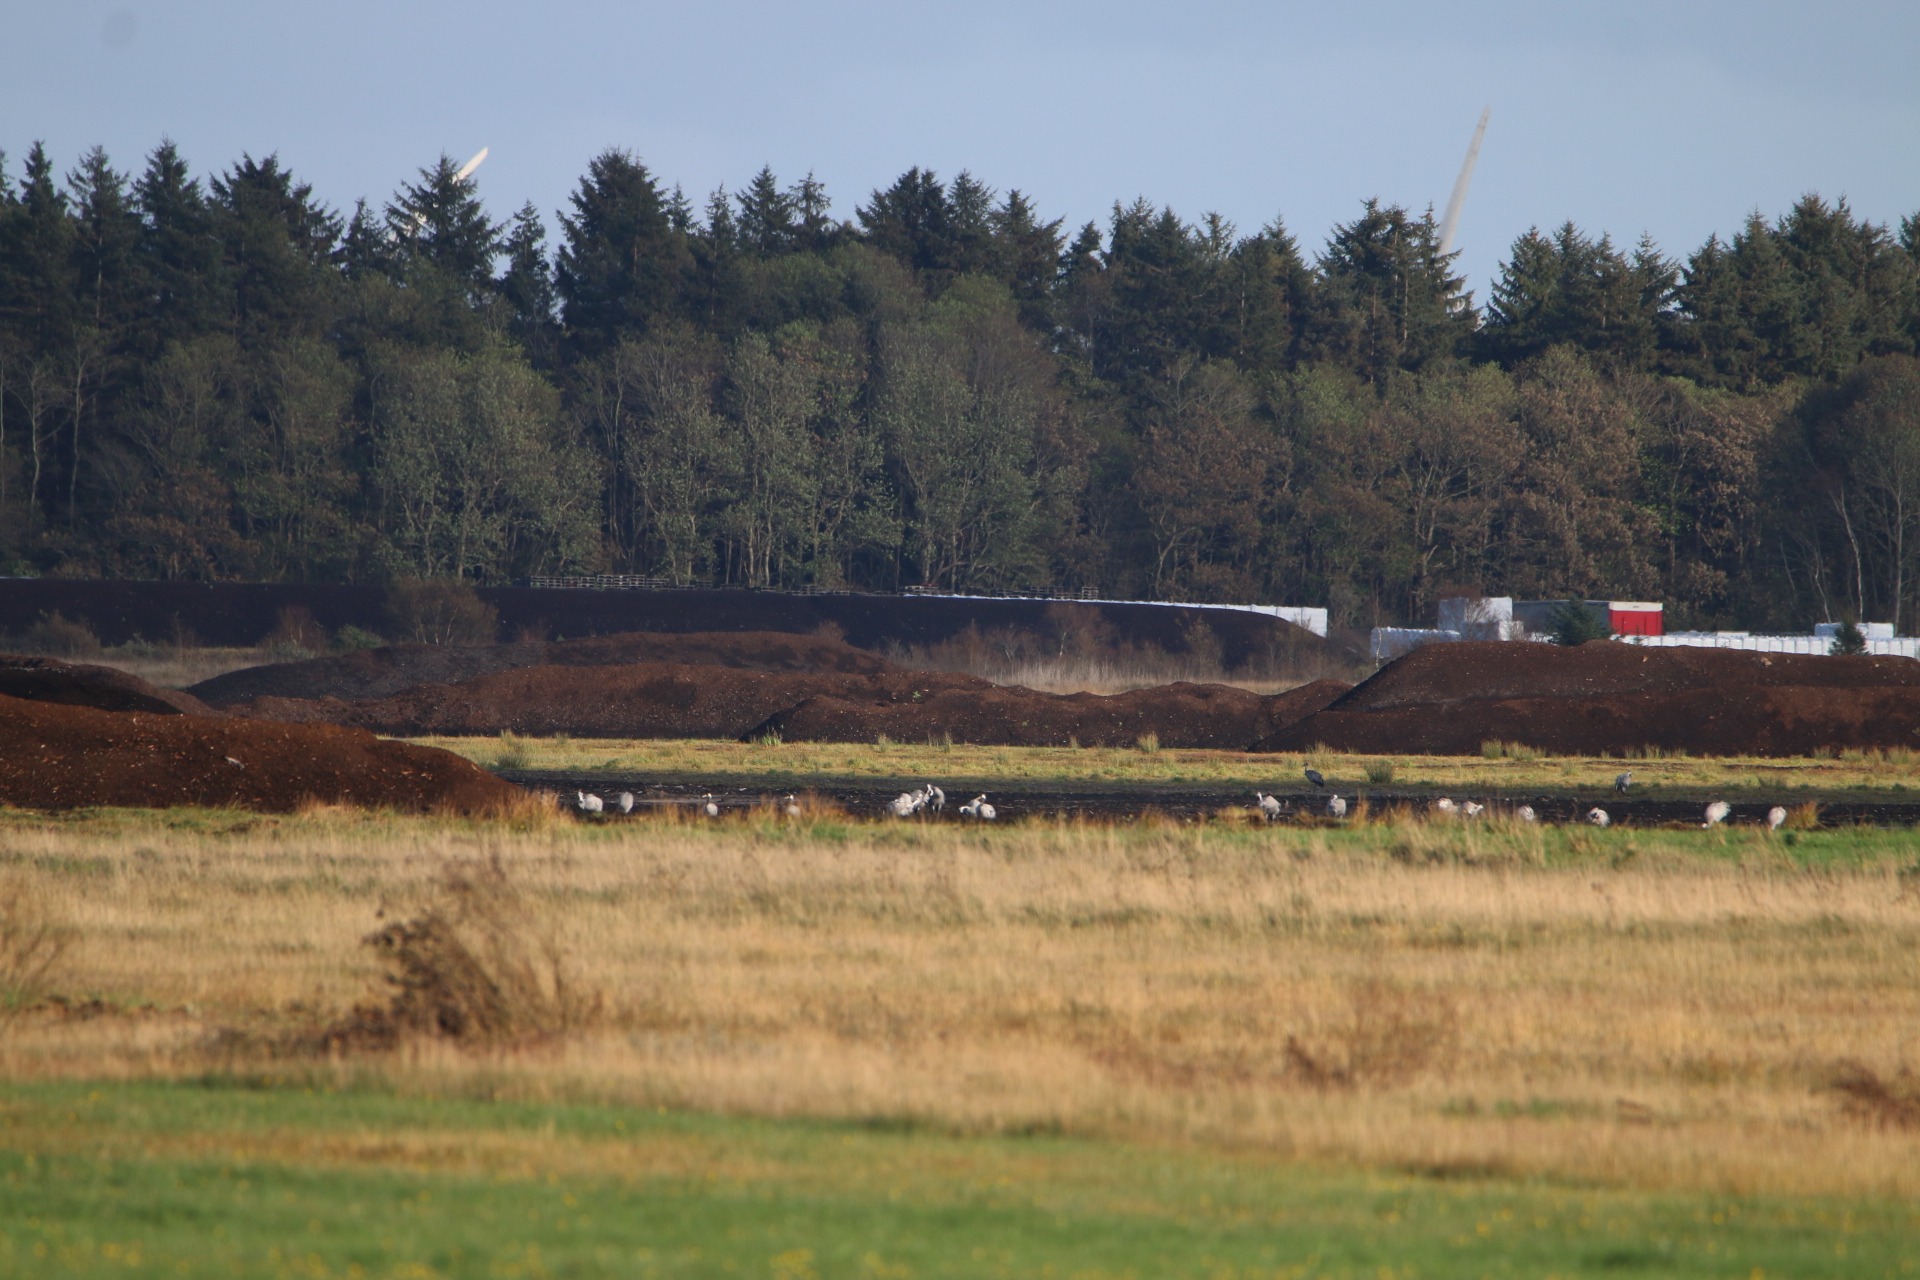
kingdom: Animalia
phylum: Chordata
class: Aves
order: Gruiformes
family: Gruidae
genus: Grus
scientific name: Grus grus
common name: Trane
